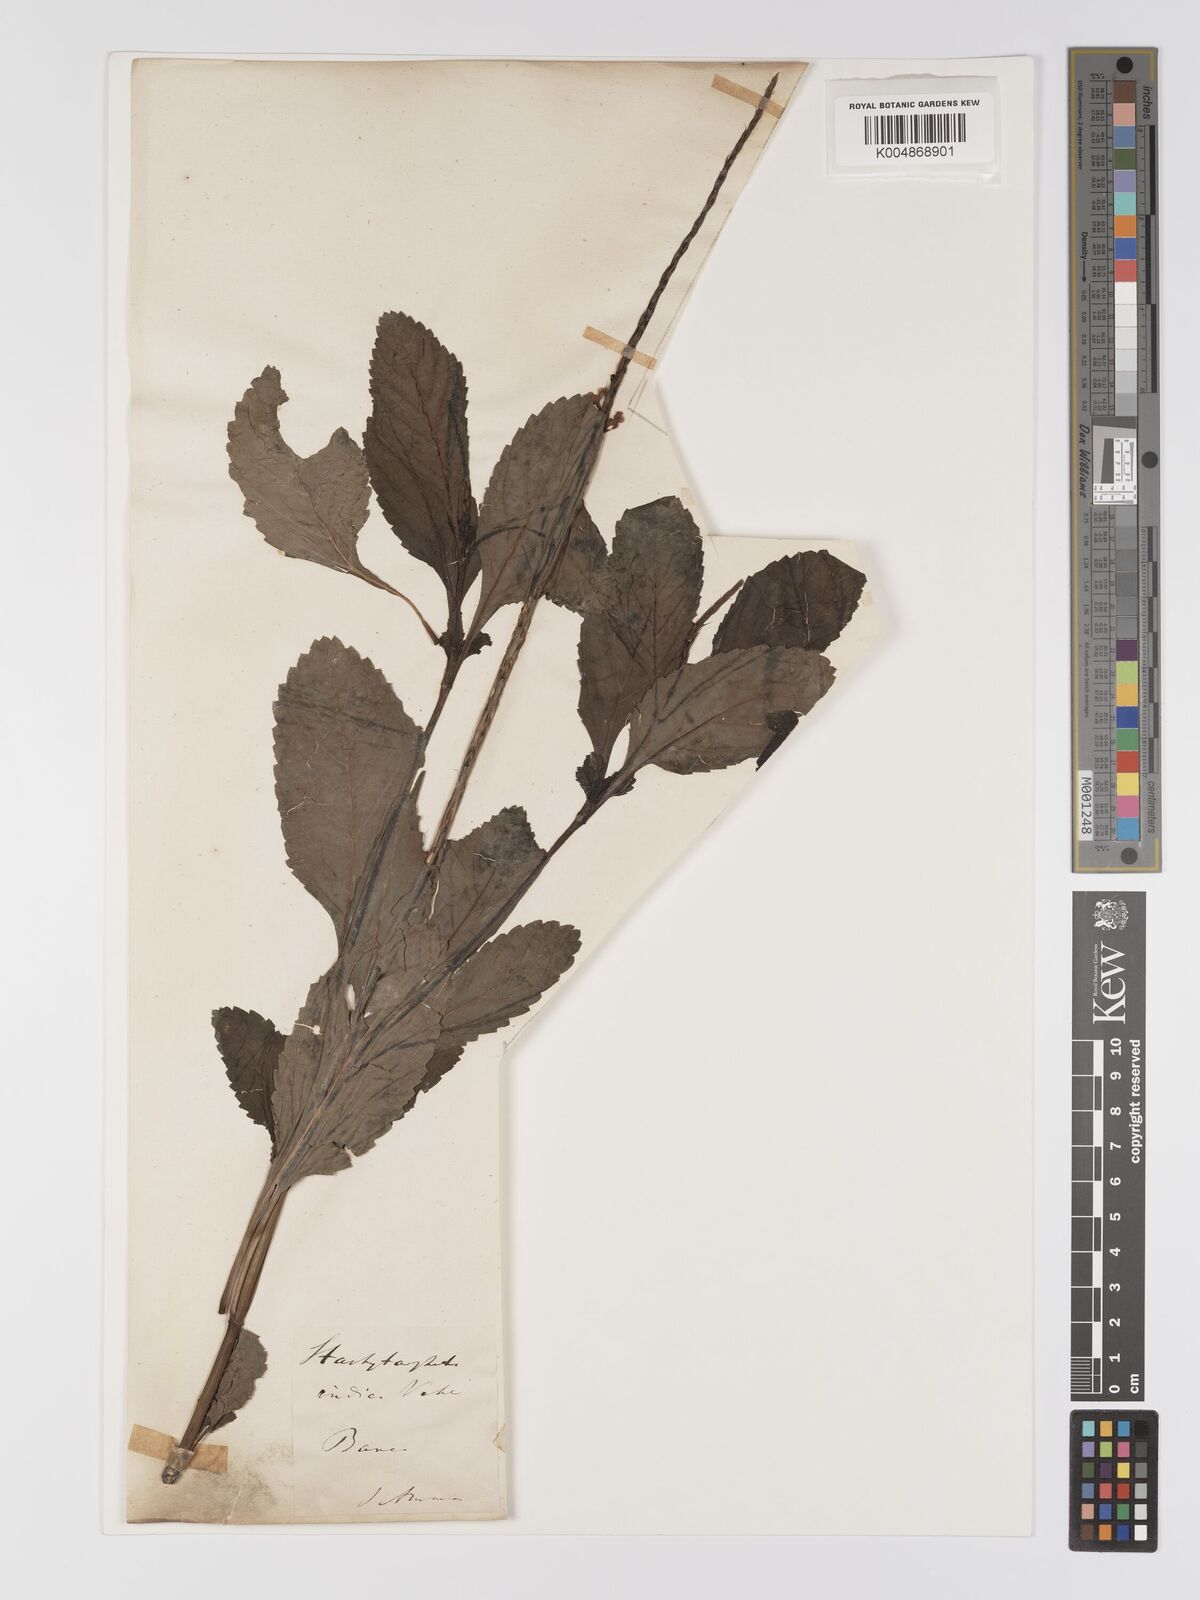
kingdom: Plantae
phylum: Tracheophyta
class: Magnoliopsida
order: Lamiales
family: Verbenaceae
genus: Stachytarpheta
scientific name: Stachytarpheta indica
